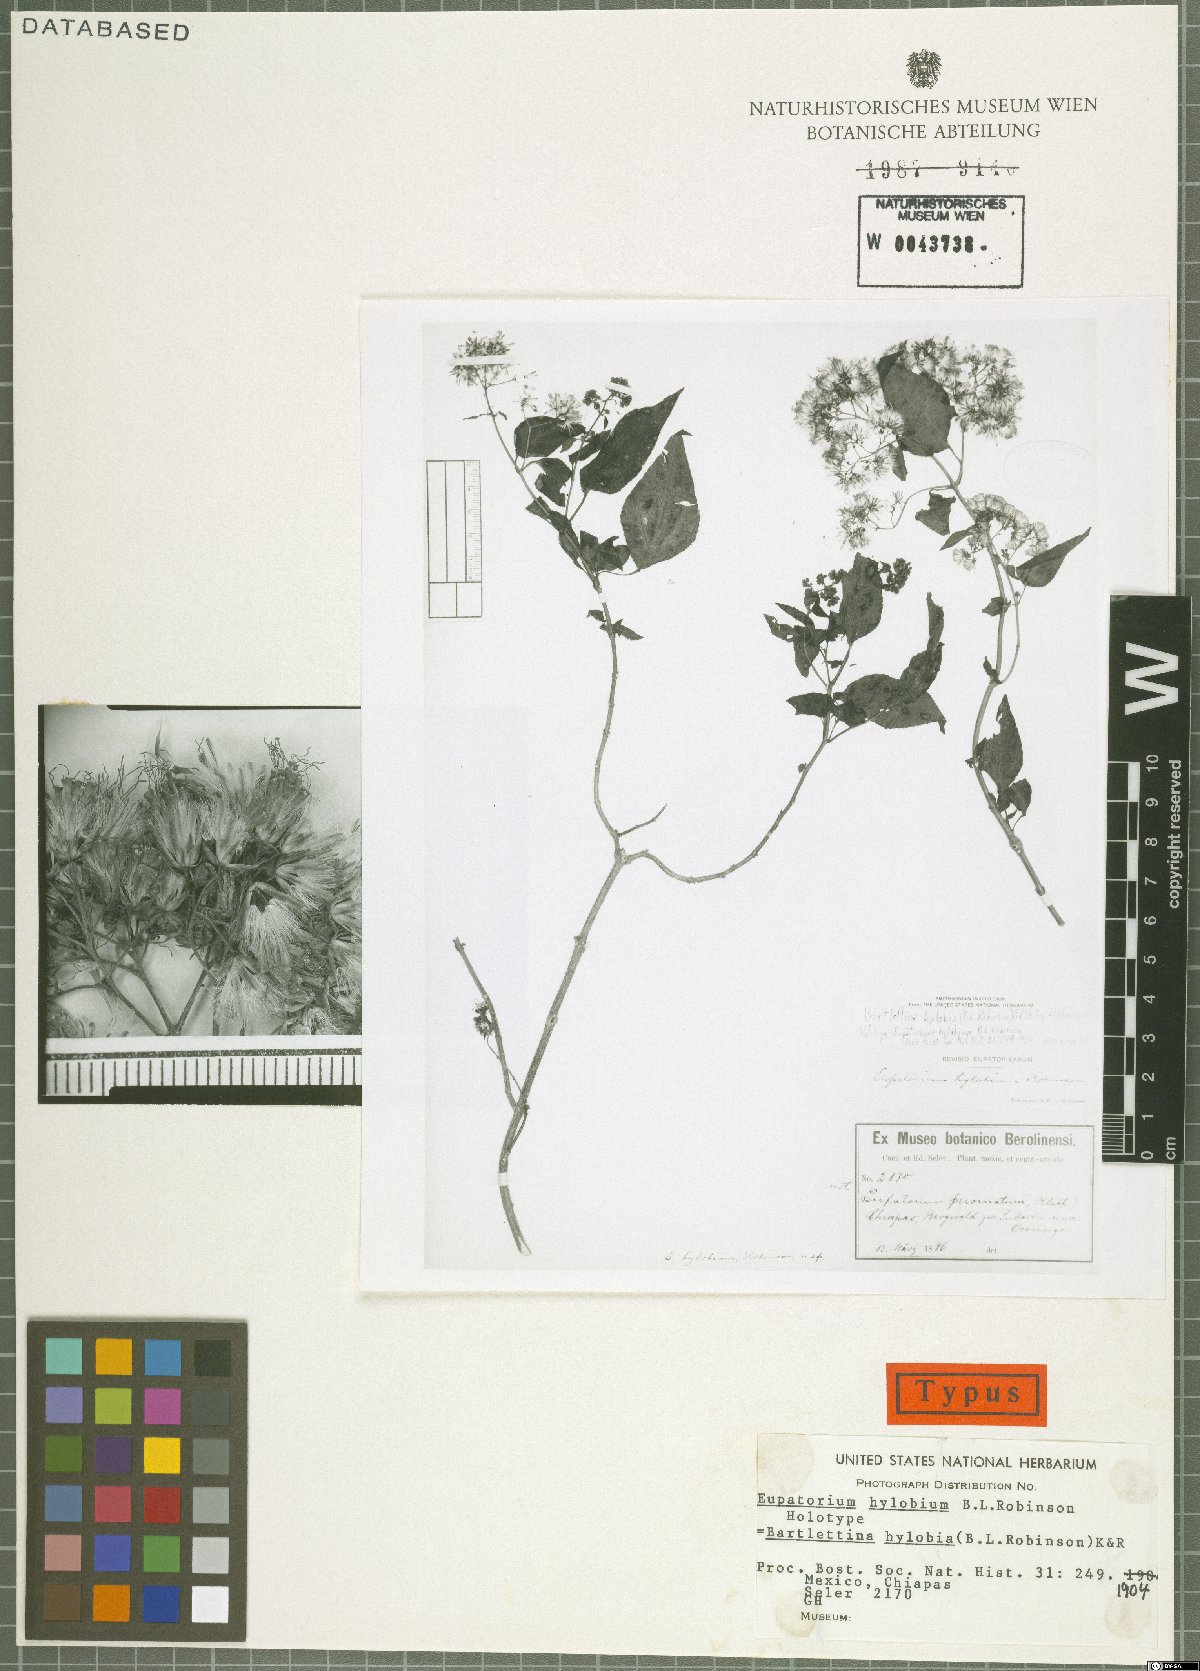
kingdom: Plantae
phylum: Tracheophyta
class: Magnoliopsida
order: Asterales
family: Asteraceae
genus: Bartlettina
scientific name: Bartlettina hylobia
